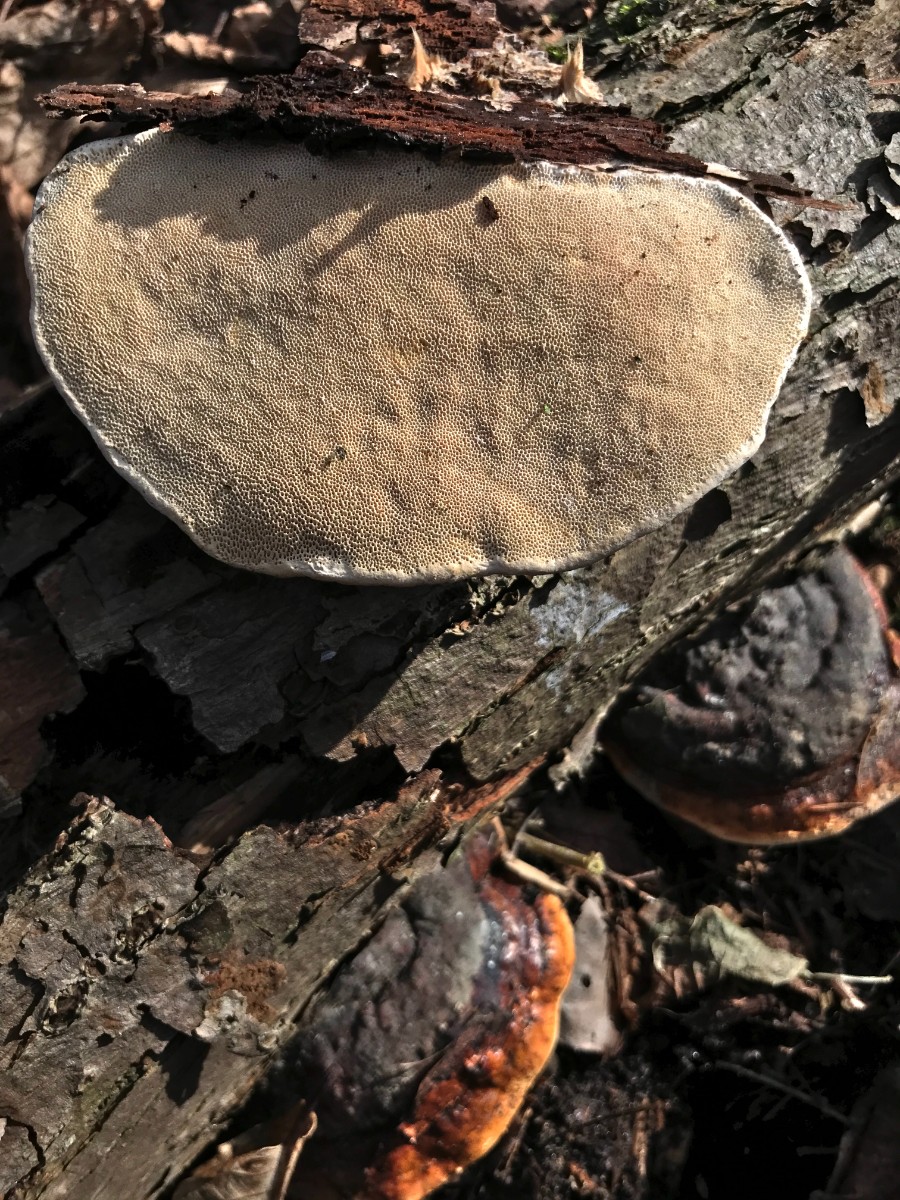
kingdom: Fungi
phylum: Basidiomycota
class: Agaricomycetes
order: Polyporales
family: Fomitopsidaceae
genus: Fomitopsis
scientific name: Fomitopsis pinicola
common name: randbæltet hovporesvamp
